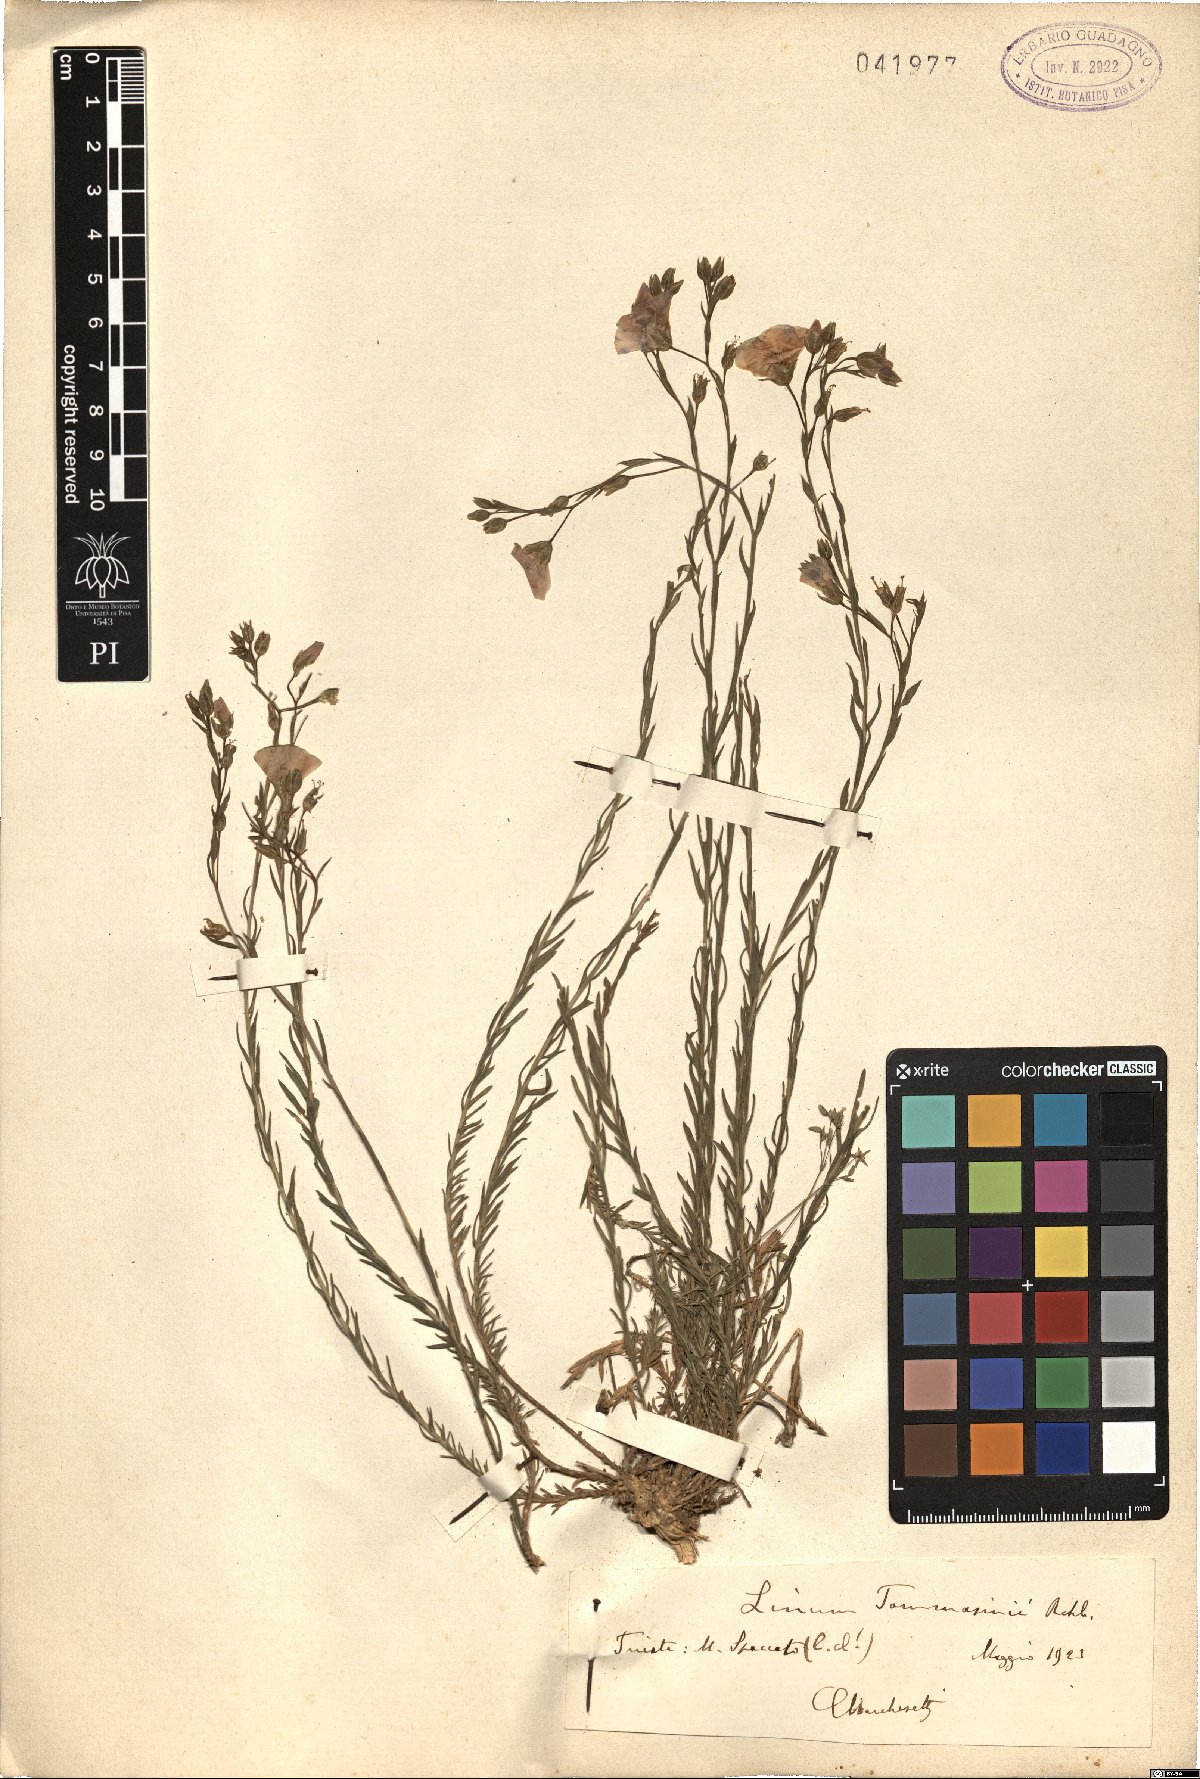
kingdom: Plantae
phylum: Tracheophyta
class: Magnoliopsida
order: Malpighiales
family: Linaceae
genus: Linum
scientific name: Linum austriacum
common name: Austrian flax
